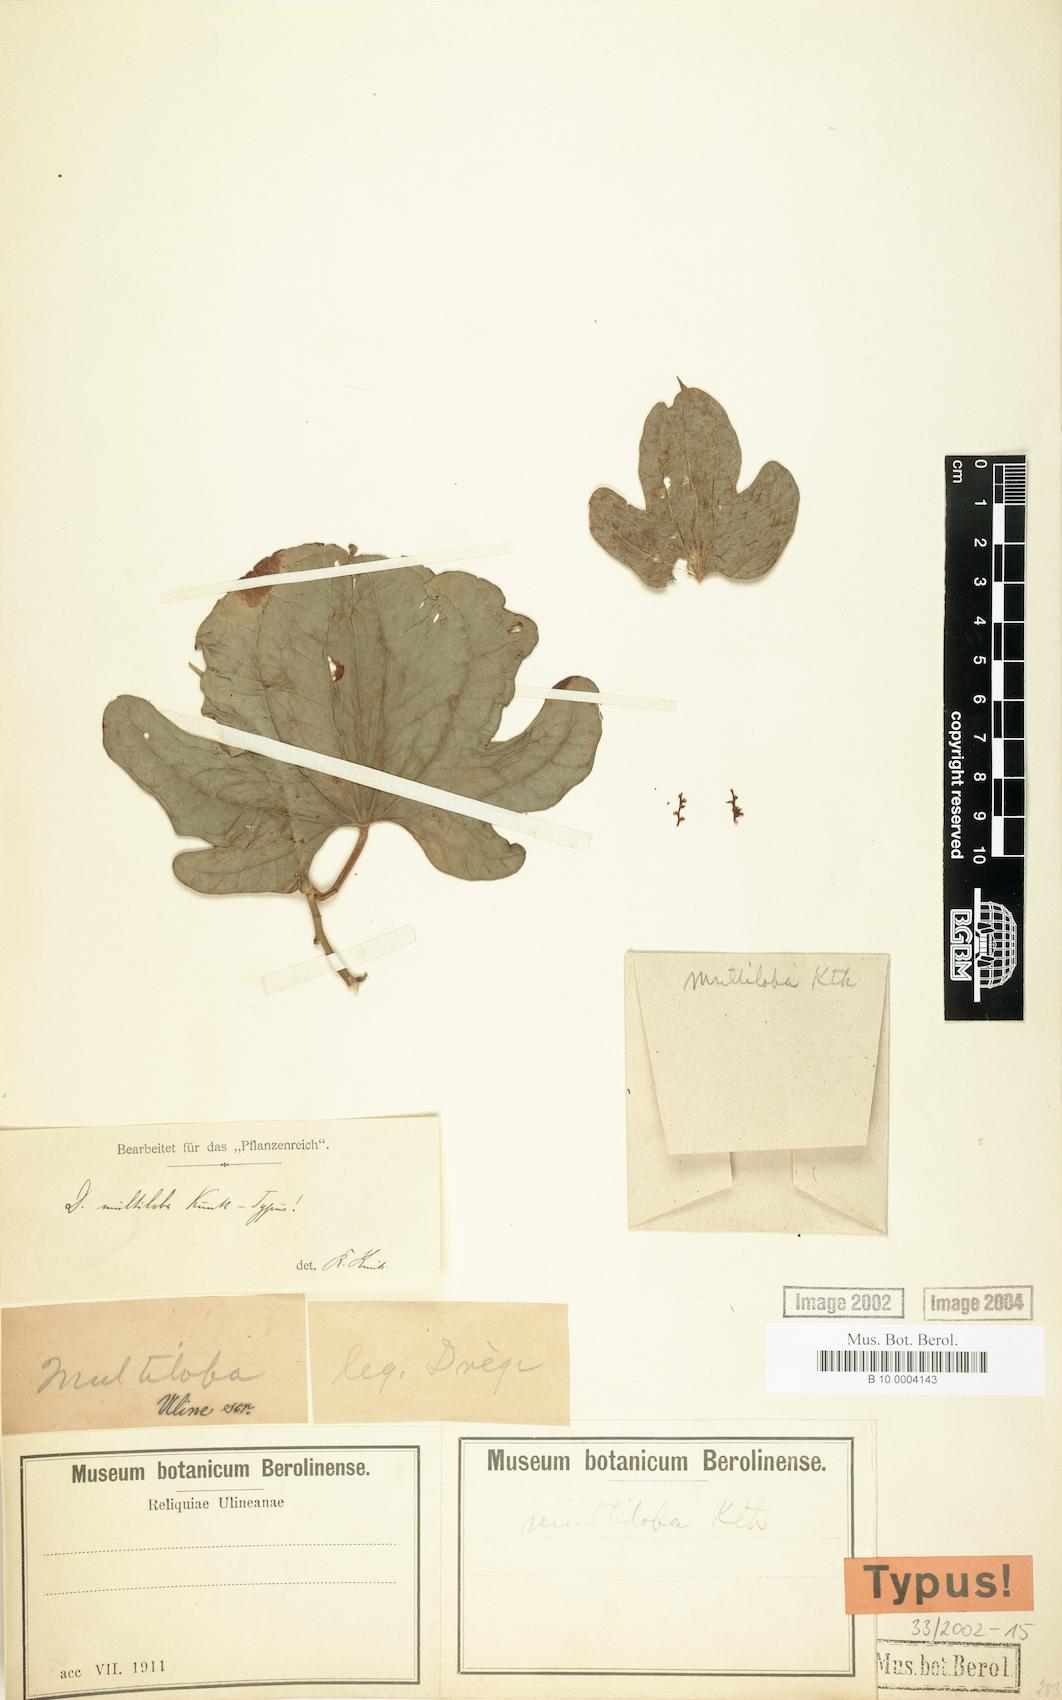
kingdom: Plantae
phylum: Tracheophyta
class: Liliopsida
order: Dioscoreales
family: Dioscoreaceae
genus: Dioscorea
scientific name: Dioscorea multiloba
